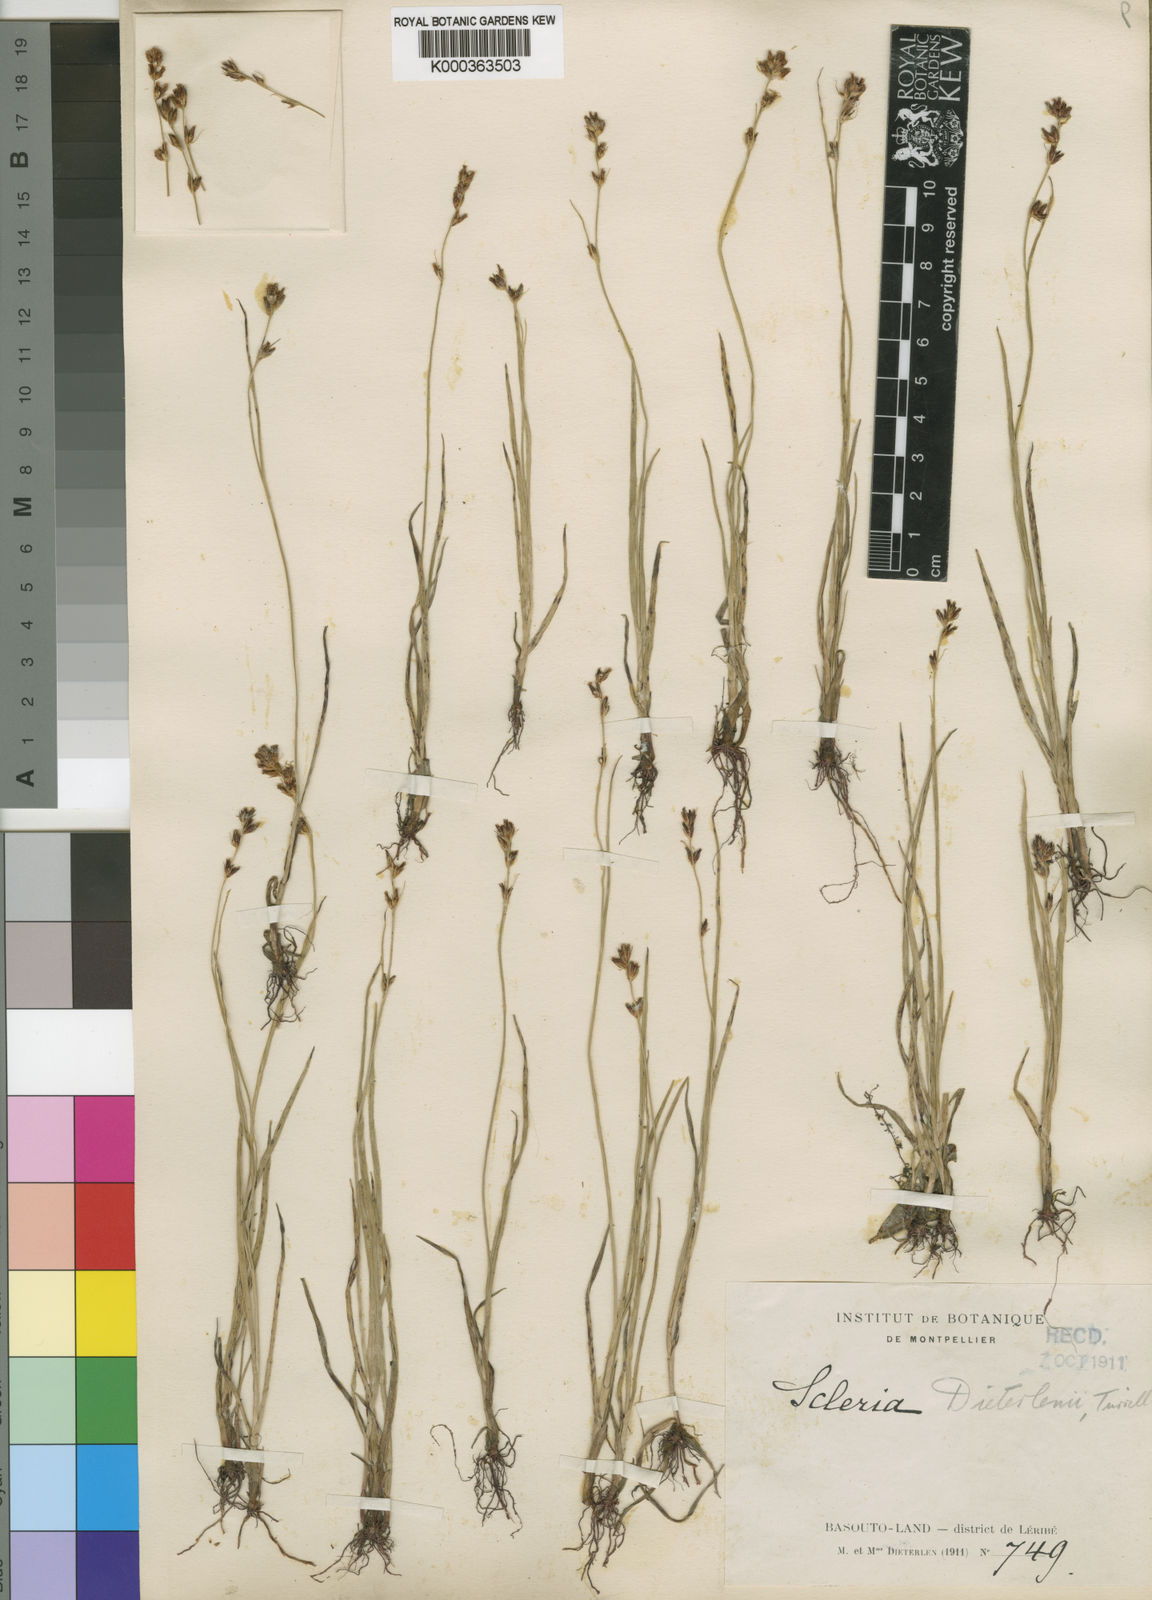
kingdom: Plantae
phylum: Tracheophyta
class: Liliopsida
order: Poales
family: Cyperaceae
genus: Scleria
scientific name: Scleria flexuosa
